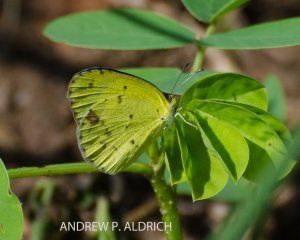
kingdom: Animalia
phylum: Arthropoda
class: Insecta
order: Lepidoptera
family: Pieridae
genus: Pyrisitia
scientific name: Pyrisitia lisa
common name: Little Yellow
